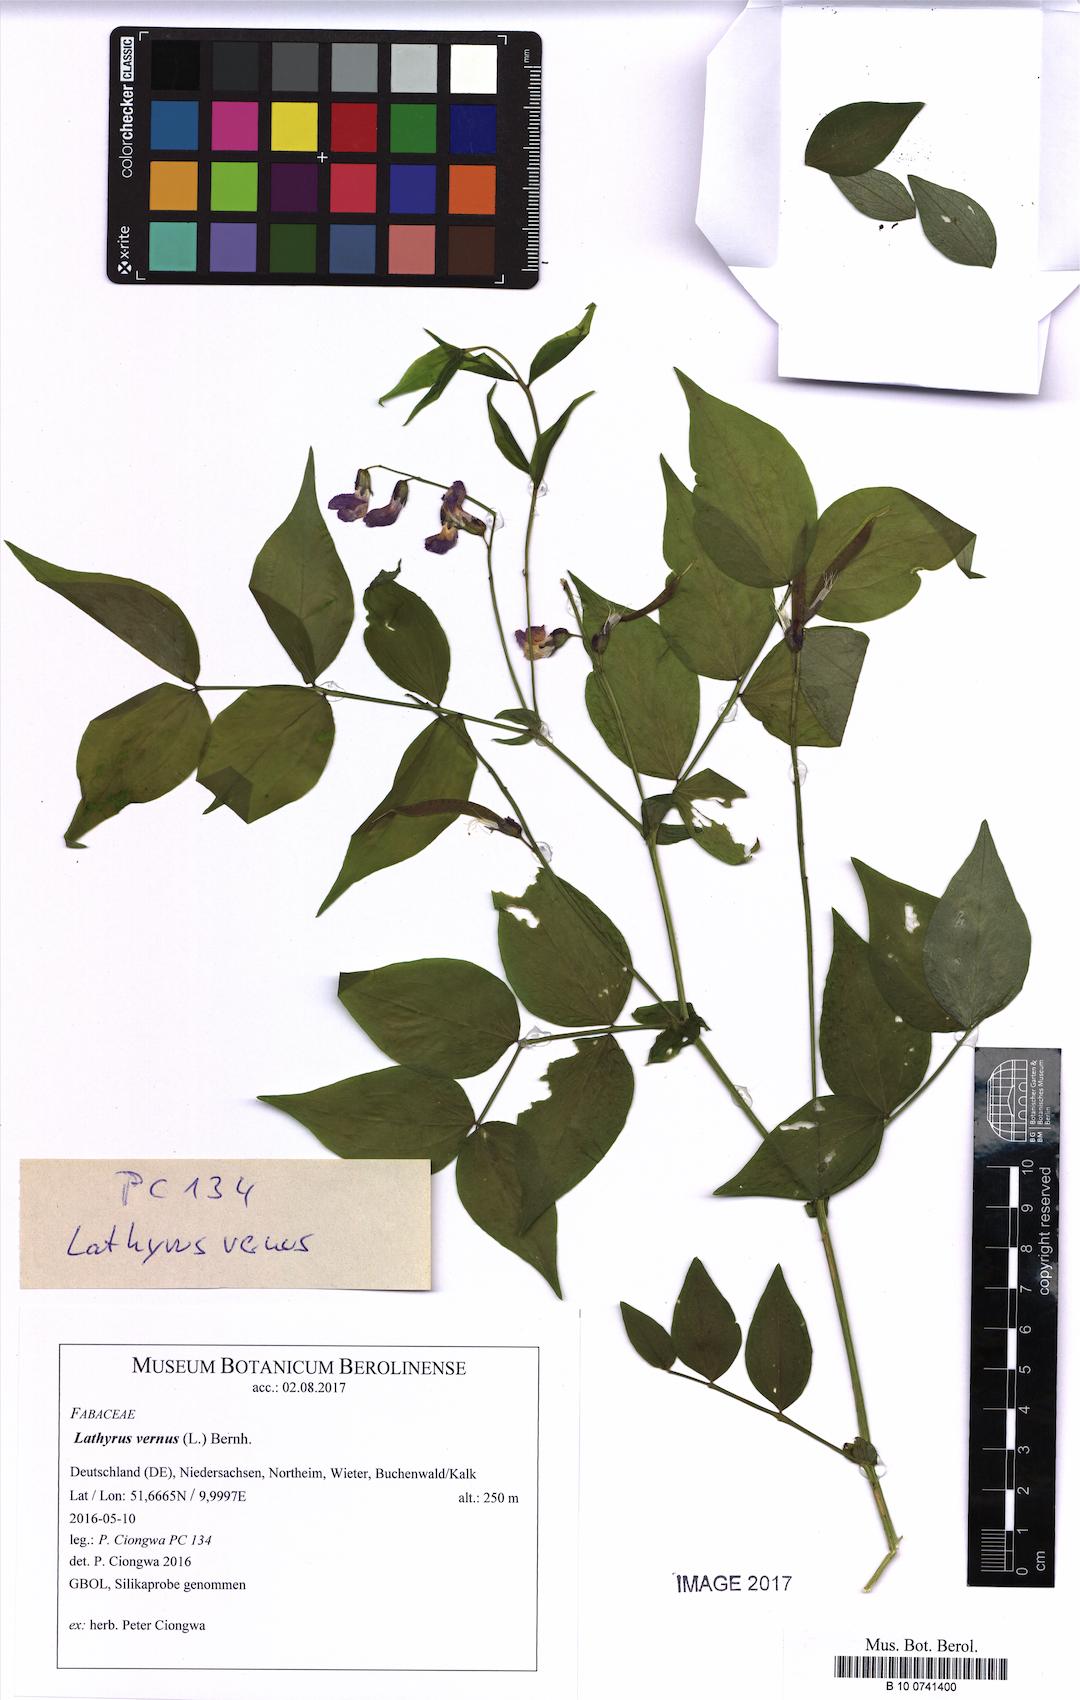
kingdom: Plantae
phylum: Tracheophyta
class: Magnoliopsida
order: Fabales
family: Fabaceae
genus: Lathyrus
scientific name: Lathyrus vernus
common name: Spring pea
